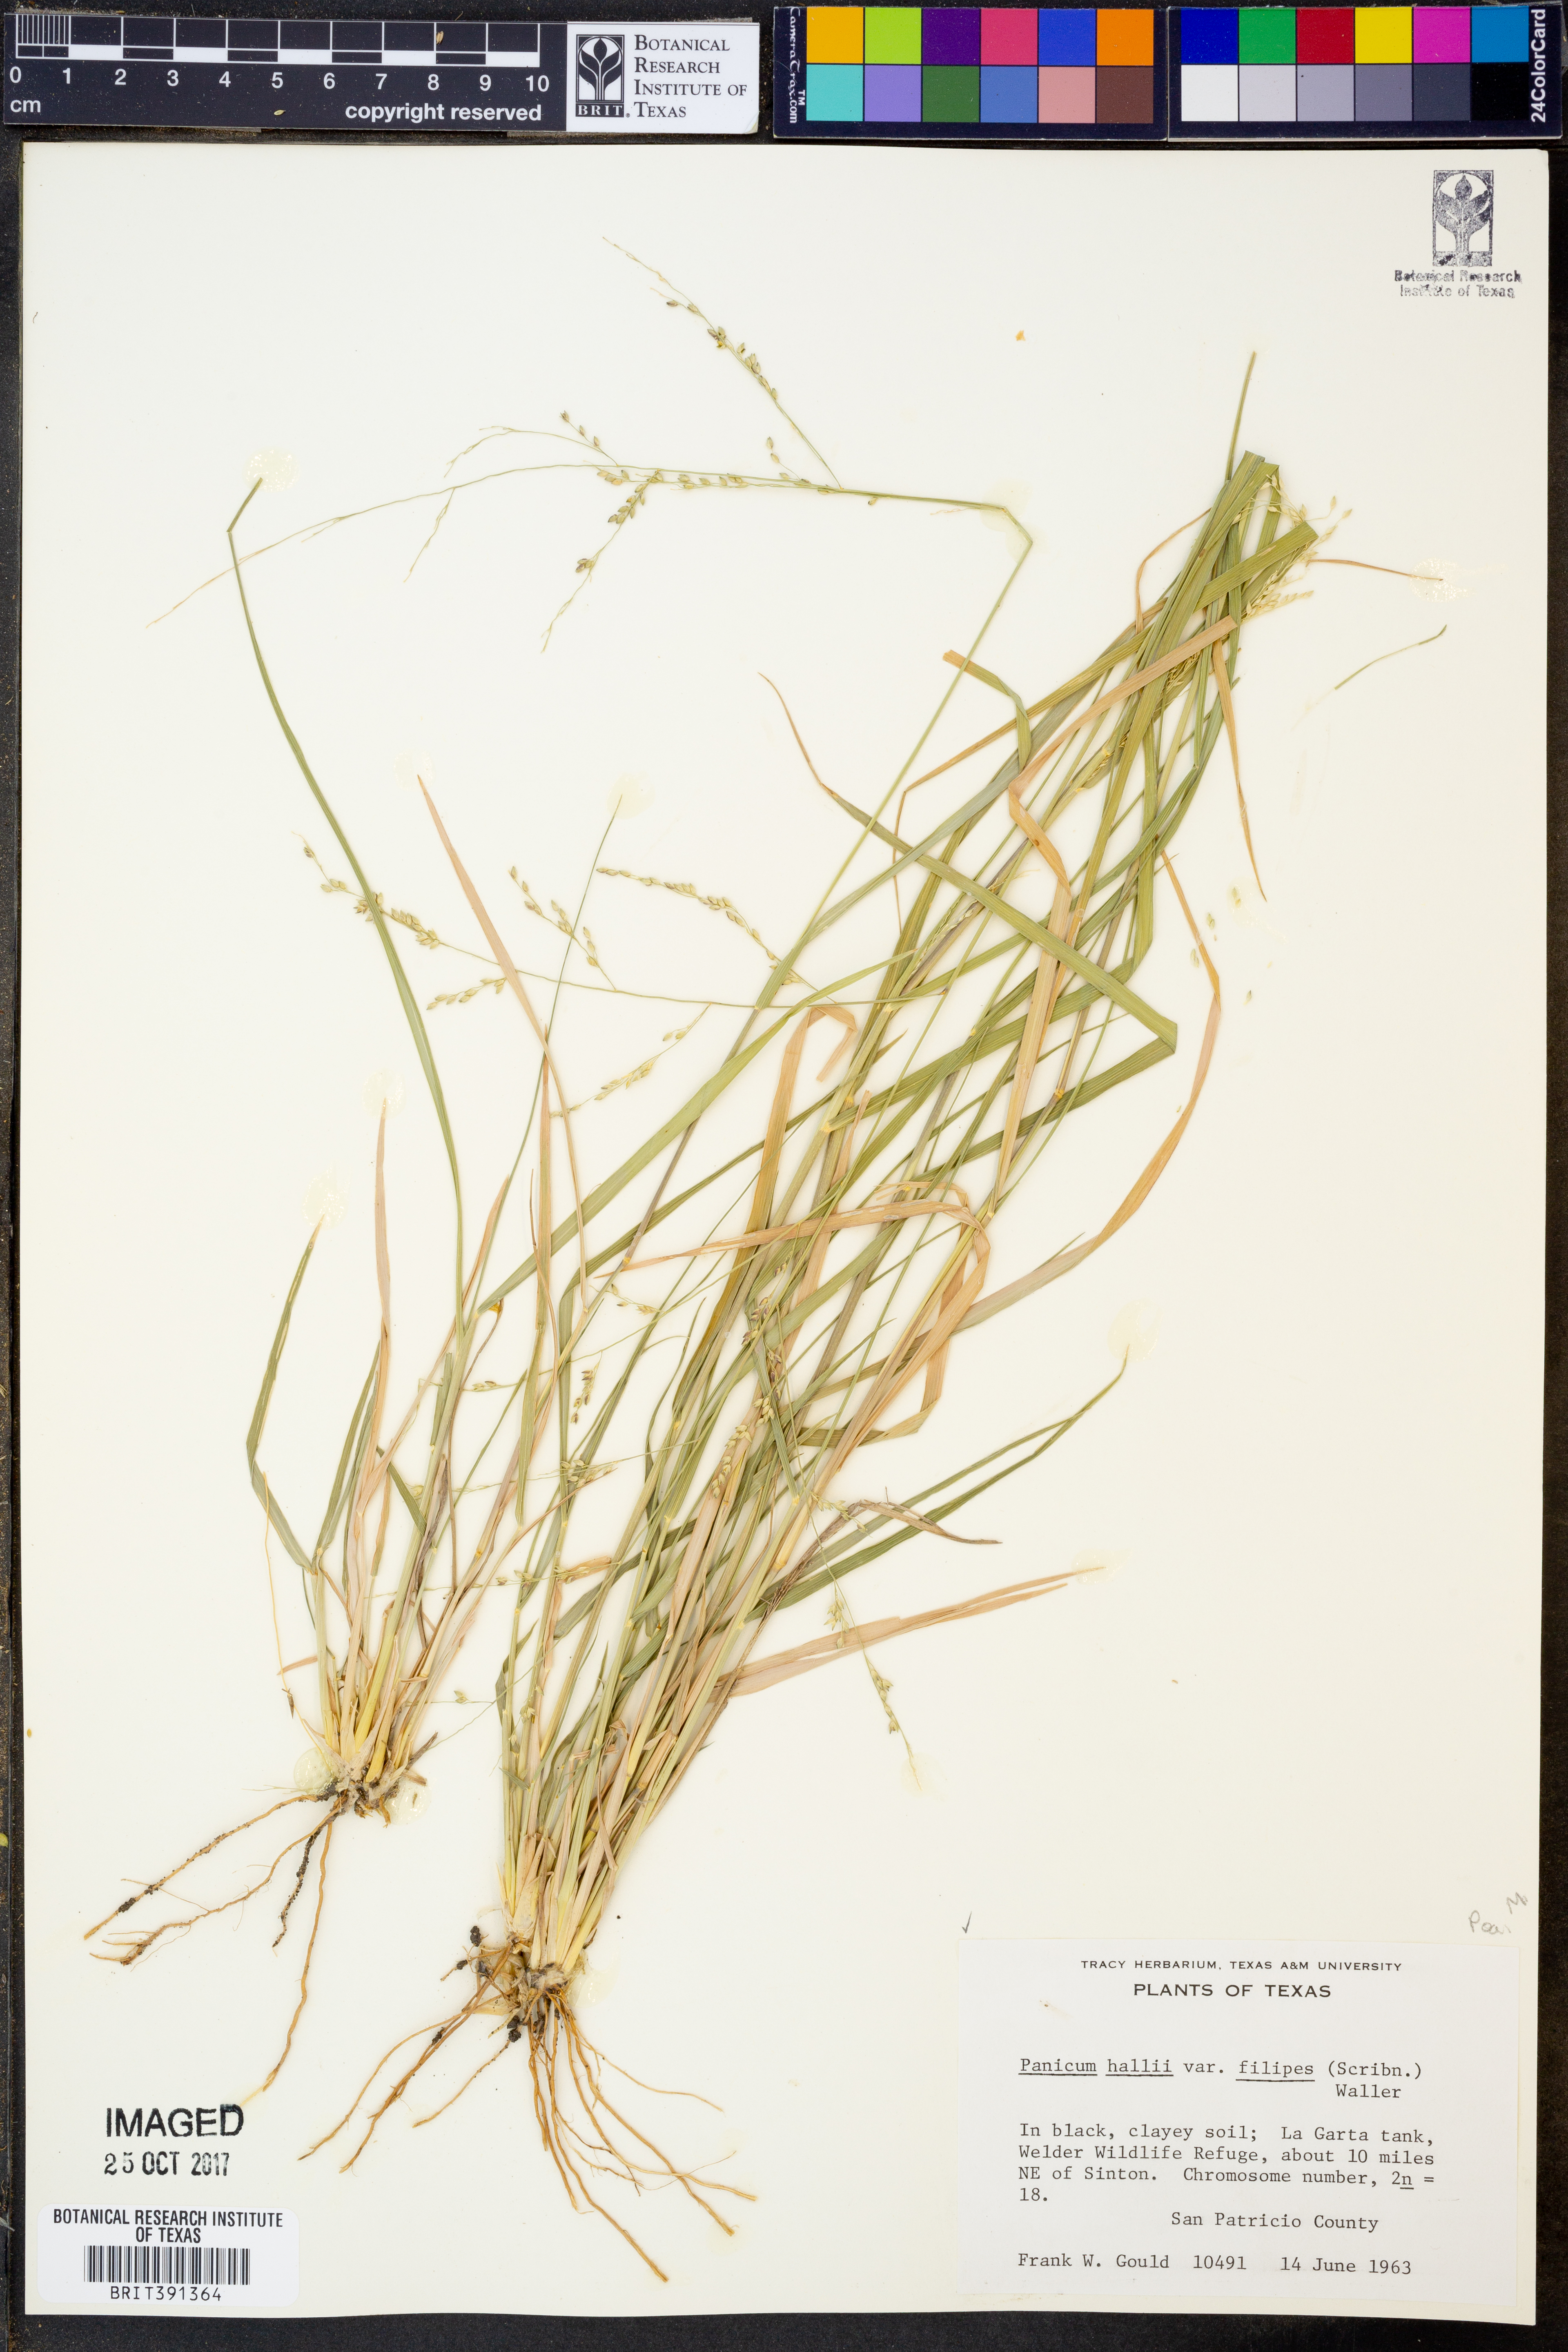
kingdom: Plantae
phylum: Tracheophyta
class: Liliopsida
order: Poales
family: Poaceae
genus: Panicum
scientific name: Panicum hallii
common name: Hall's witchgrass
